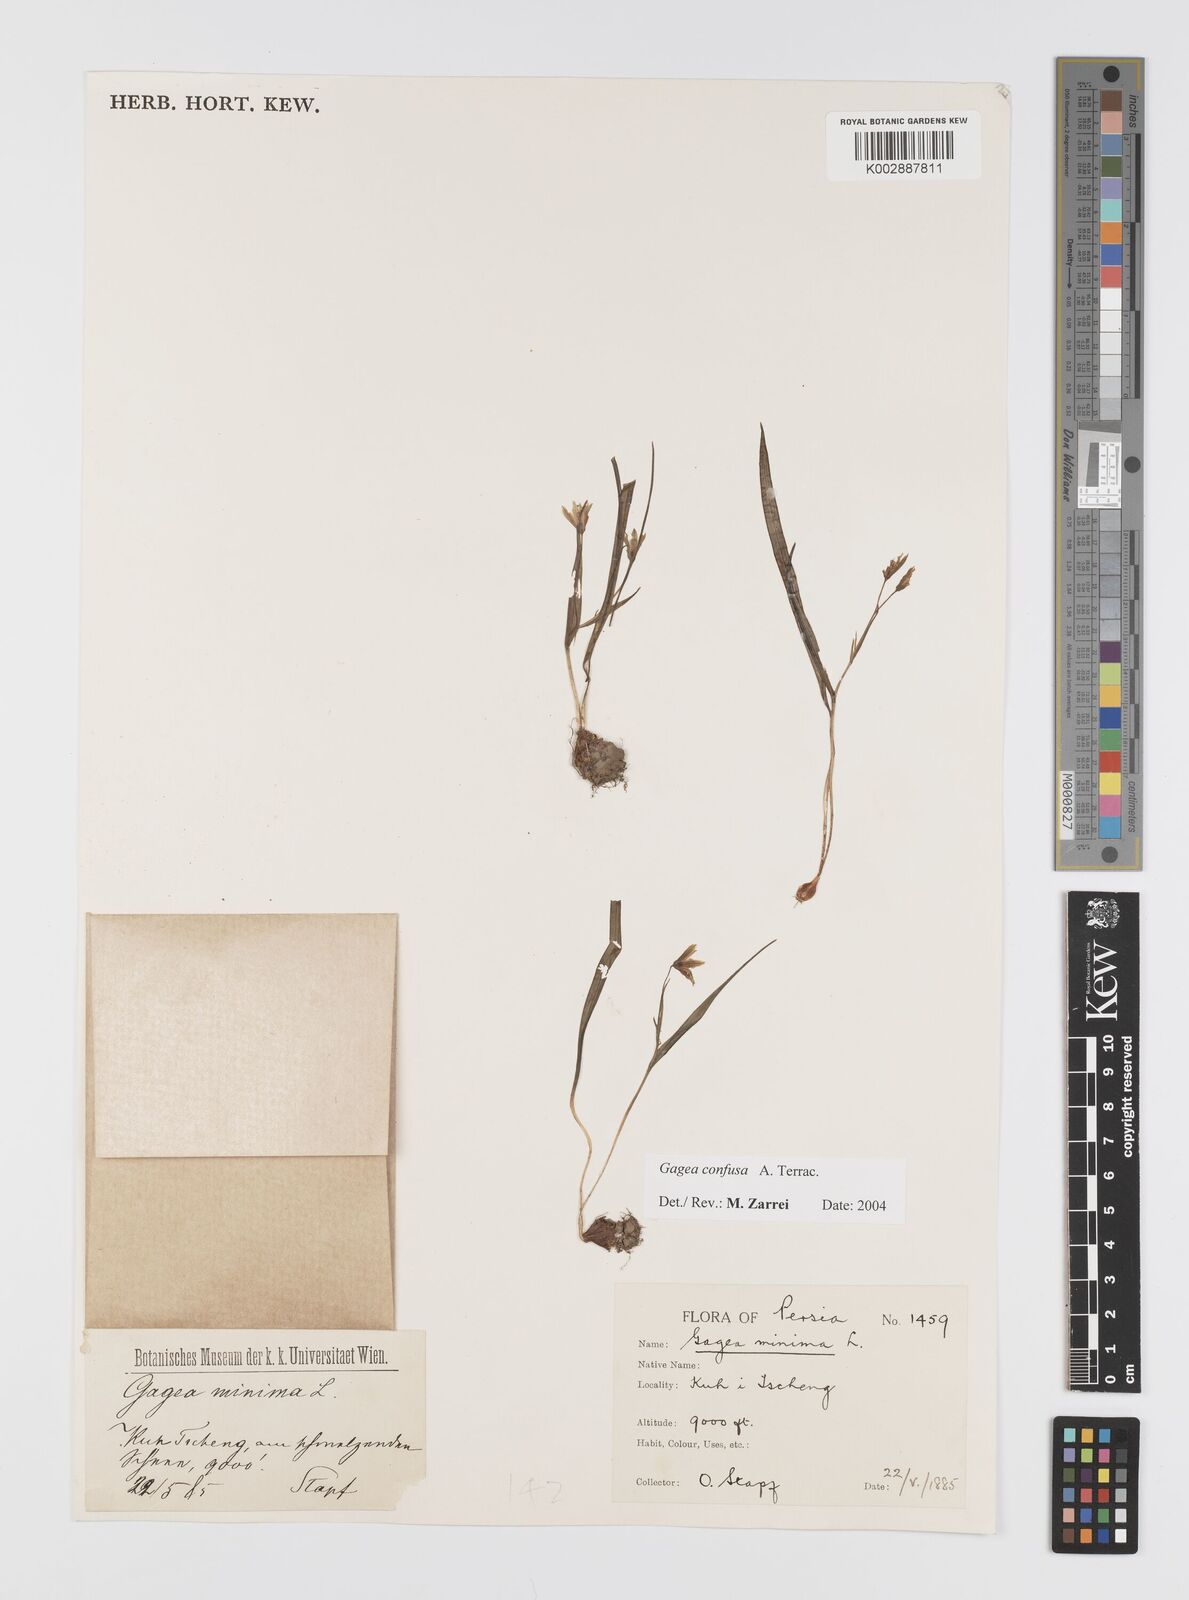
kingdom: Plantae
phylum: Tracheophyta
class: Liliopsida
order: Liliales
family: Liliaceae
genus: Gagea
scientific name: Gagea confusa
